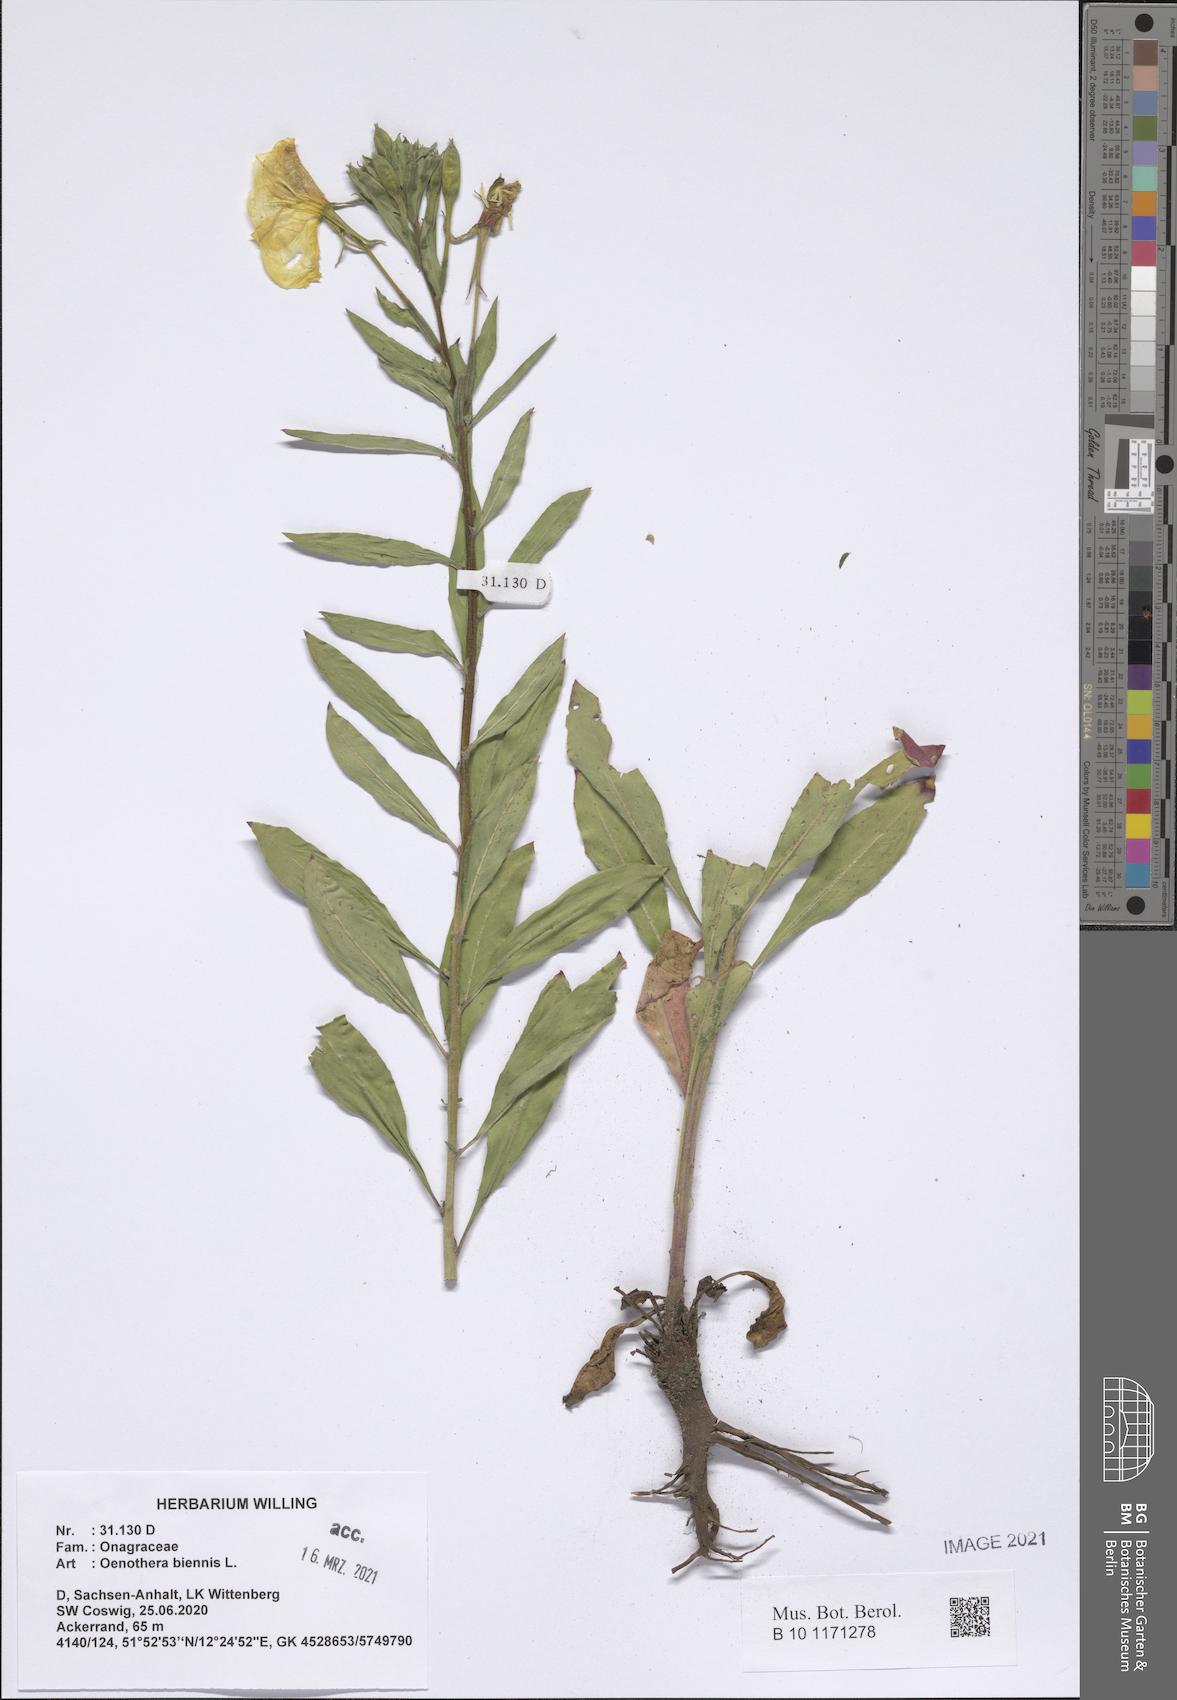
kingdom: Plantae
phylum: Tracheophyta
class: Magnoliopsida
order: Myrtales
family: Onagraceae
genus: Oenothera
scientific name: Oenothera biennis
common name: Common evening-primrose
